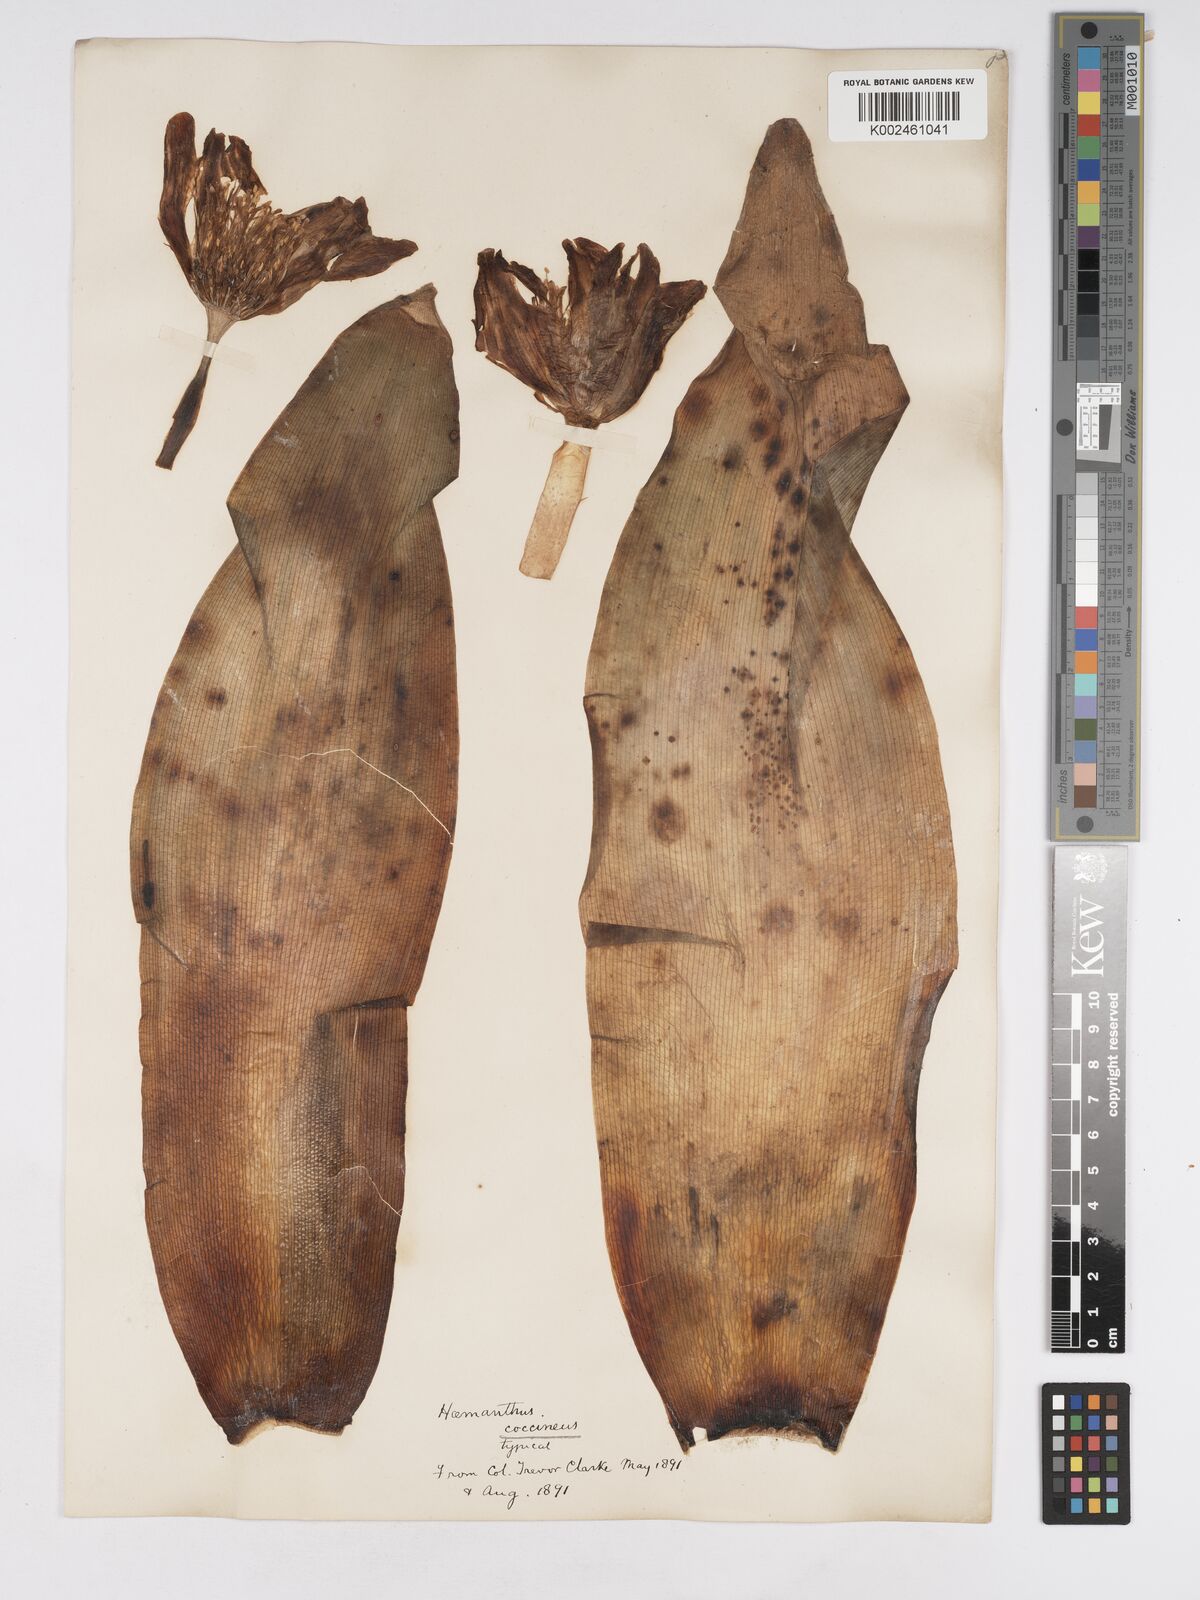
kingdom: Plantae
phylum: Tracheophyta
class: Liliopsida
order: Asparagales
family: Amaryllidaceae
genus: Haemanthus
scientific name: Haemanthus coccineus
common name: Cape-tulip
